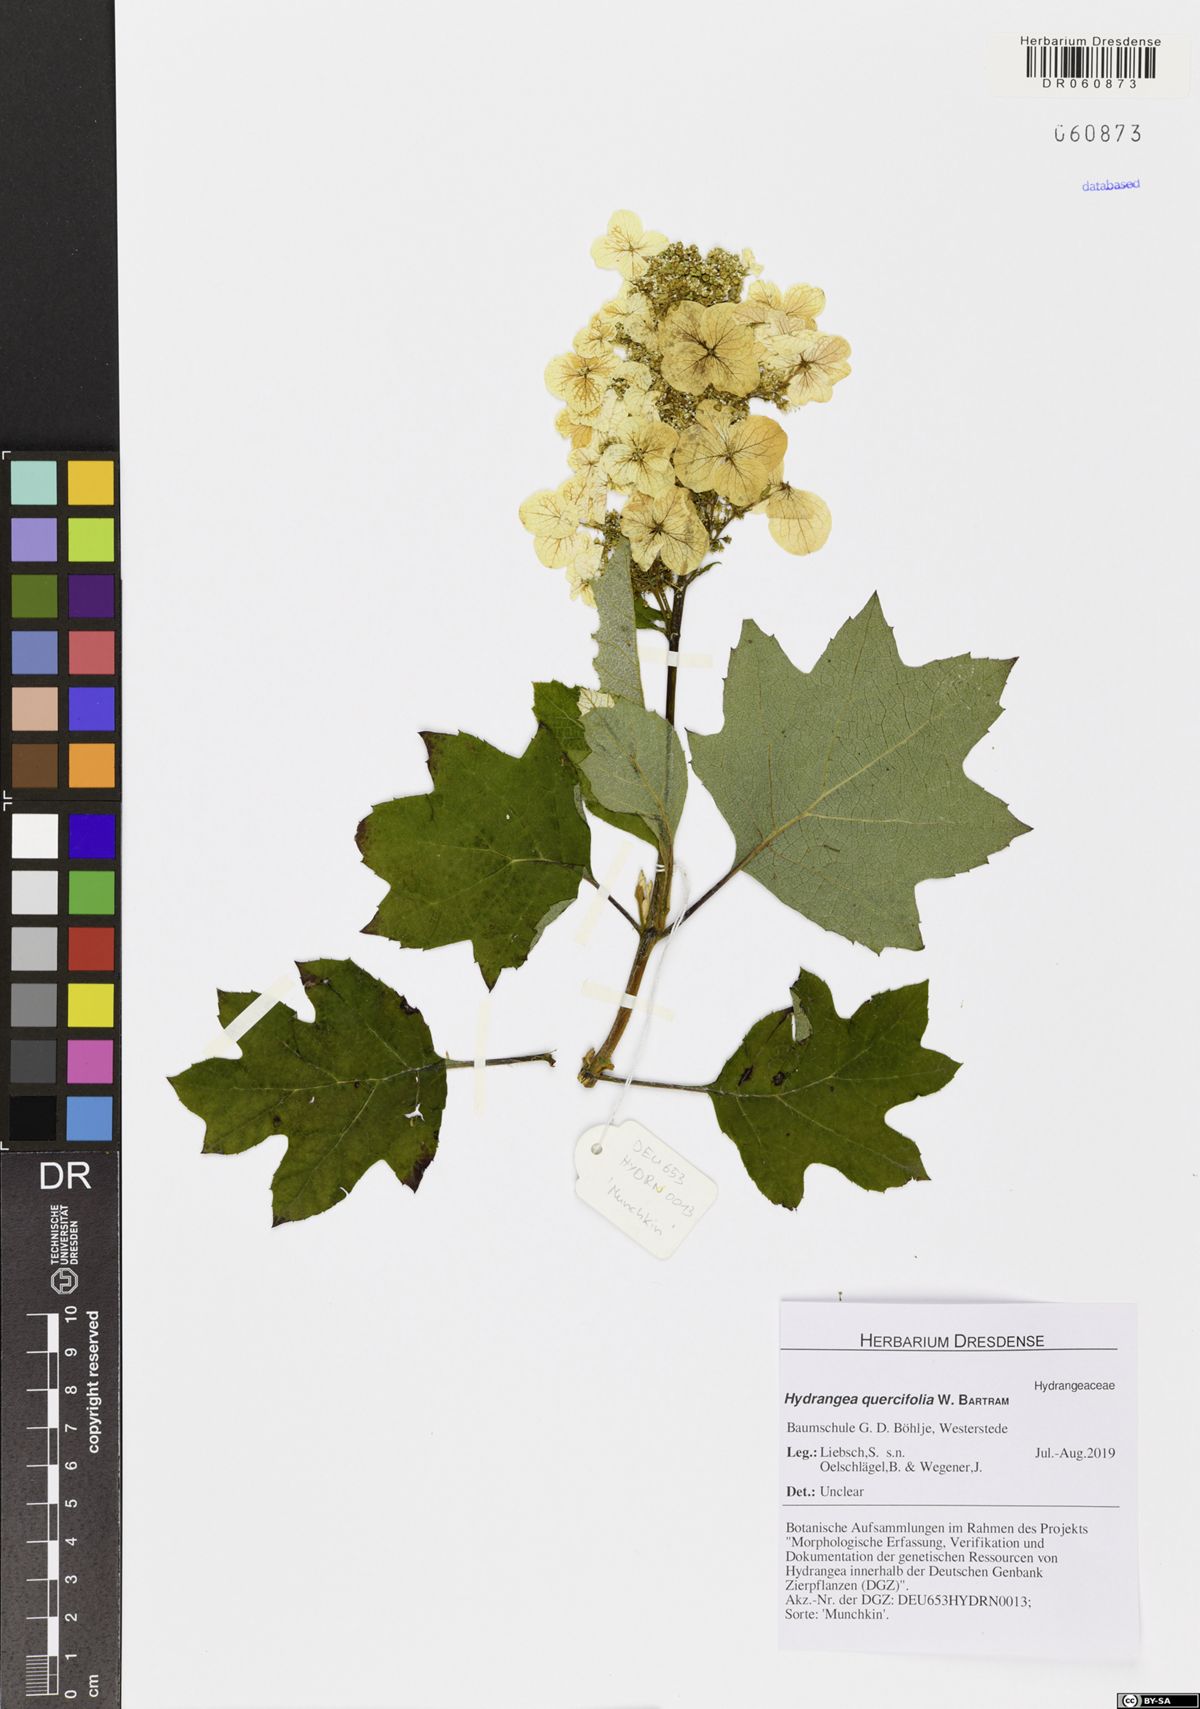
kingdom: Plantae
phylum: Tracheophyta
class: Magnoliopsida
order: Cornales
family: Hydrangeaceae
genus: Hydrangea
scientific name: Hydrangea quercifolia
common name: Oak-leaf hydrangea
